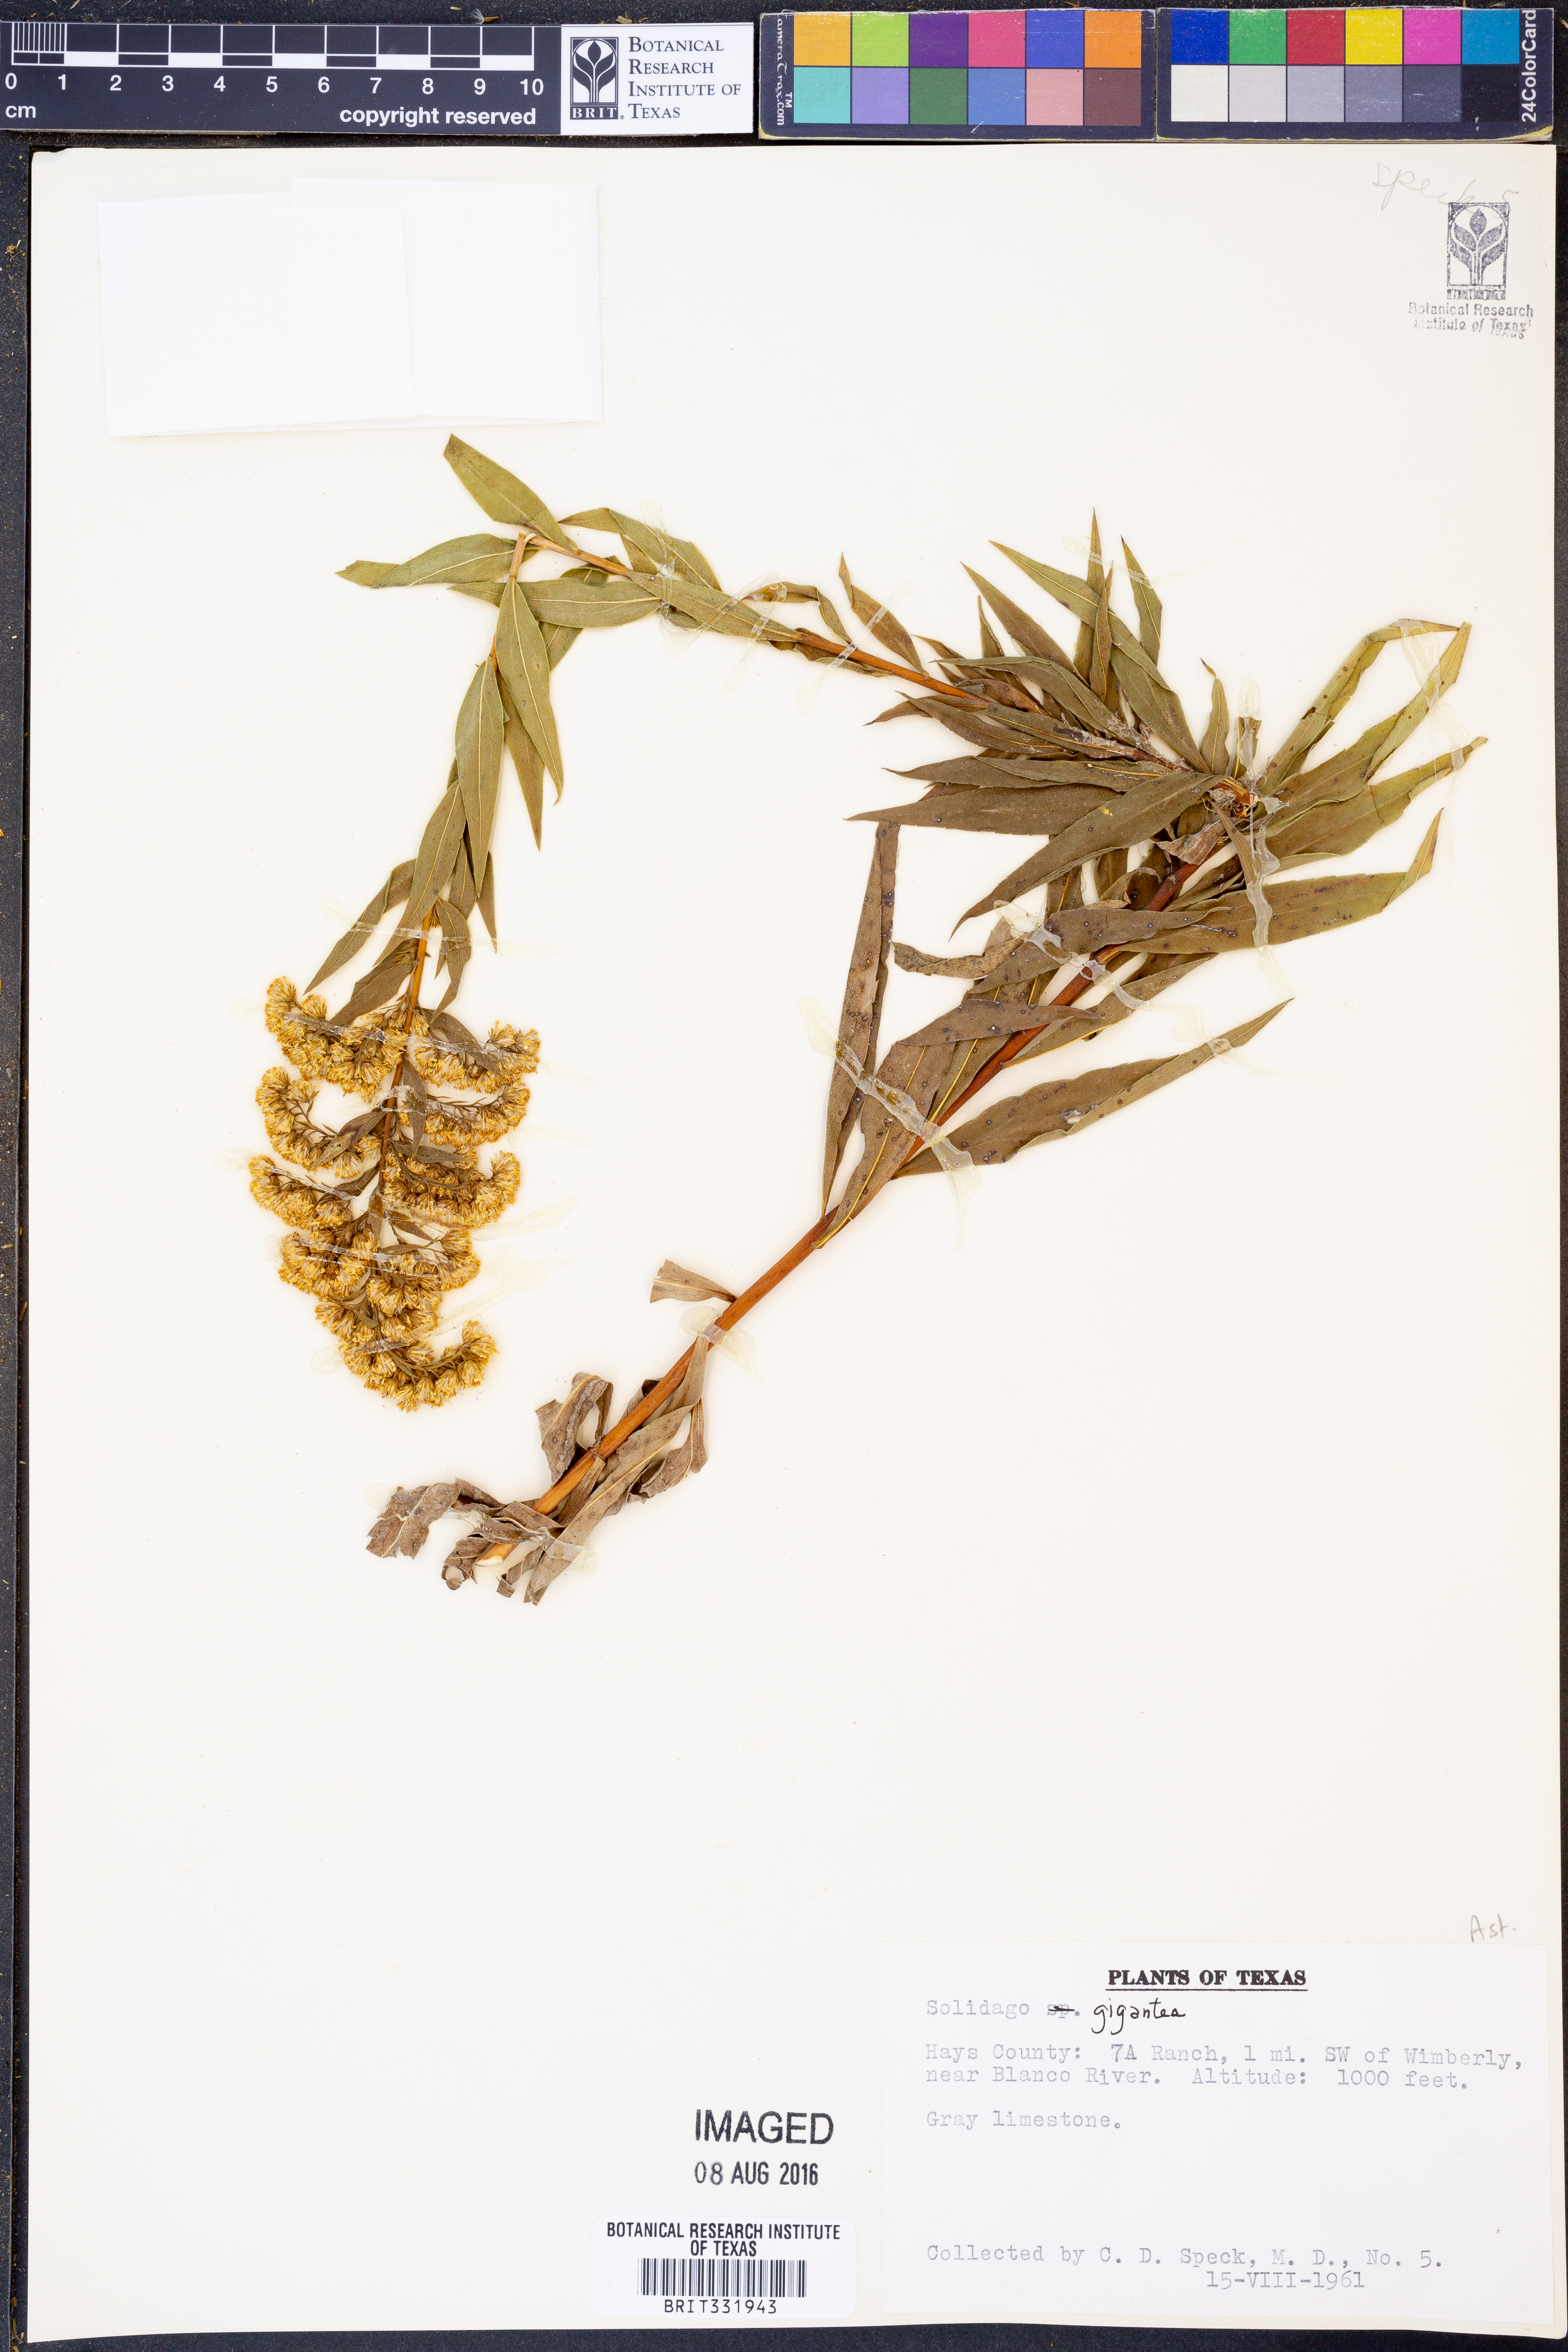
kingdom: Plantae
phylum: Tracheophyta
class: Magnoliopsida
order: Asterales
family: Asteraceae
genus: Solidago
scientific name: Solidago gigantea
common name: Giant goldenrod
